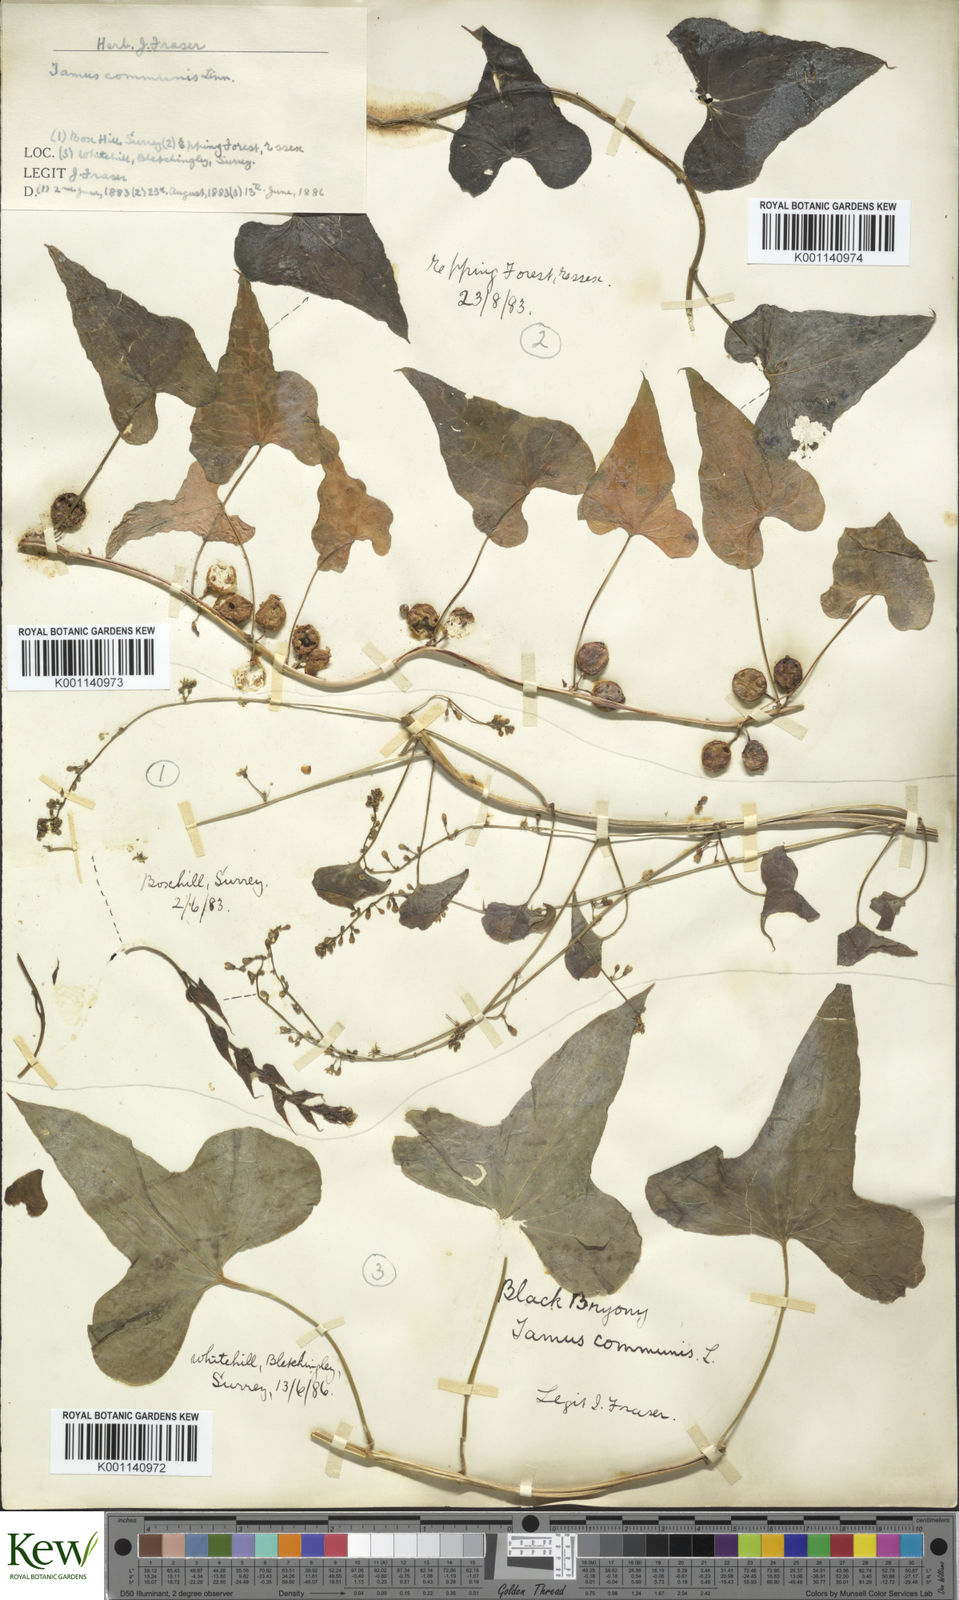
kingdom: Plantae
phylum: Tracheophyta
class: Liliopsida
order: Dioscoreales
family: Dioscoreaceae
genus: Dioscorea
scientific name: Dioscorea communis
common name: Black-bindweed
